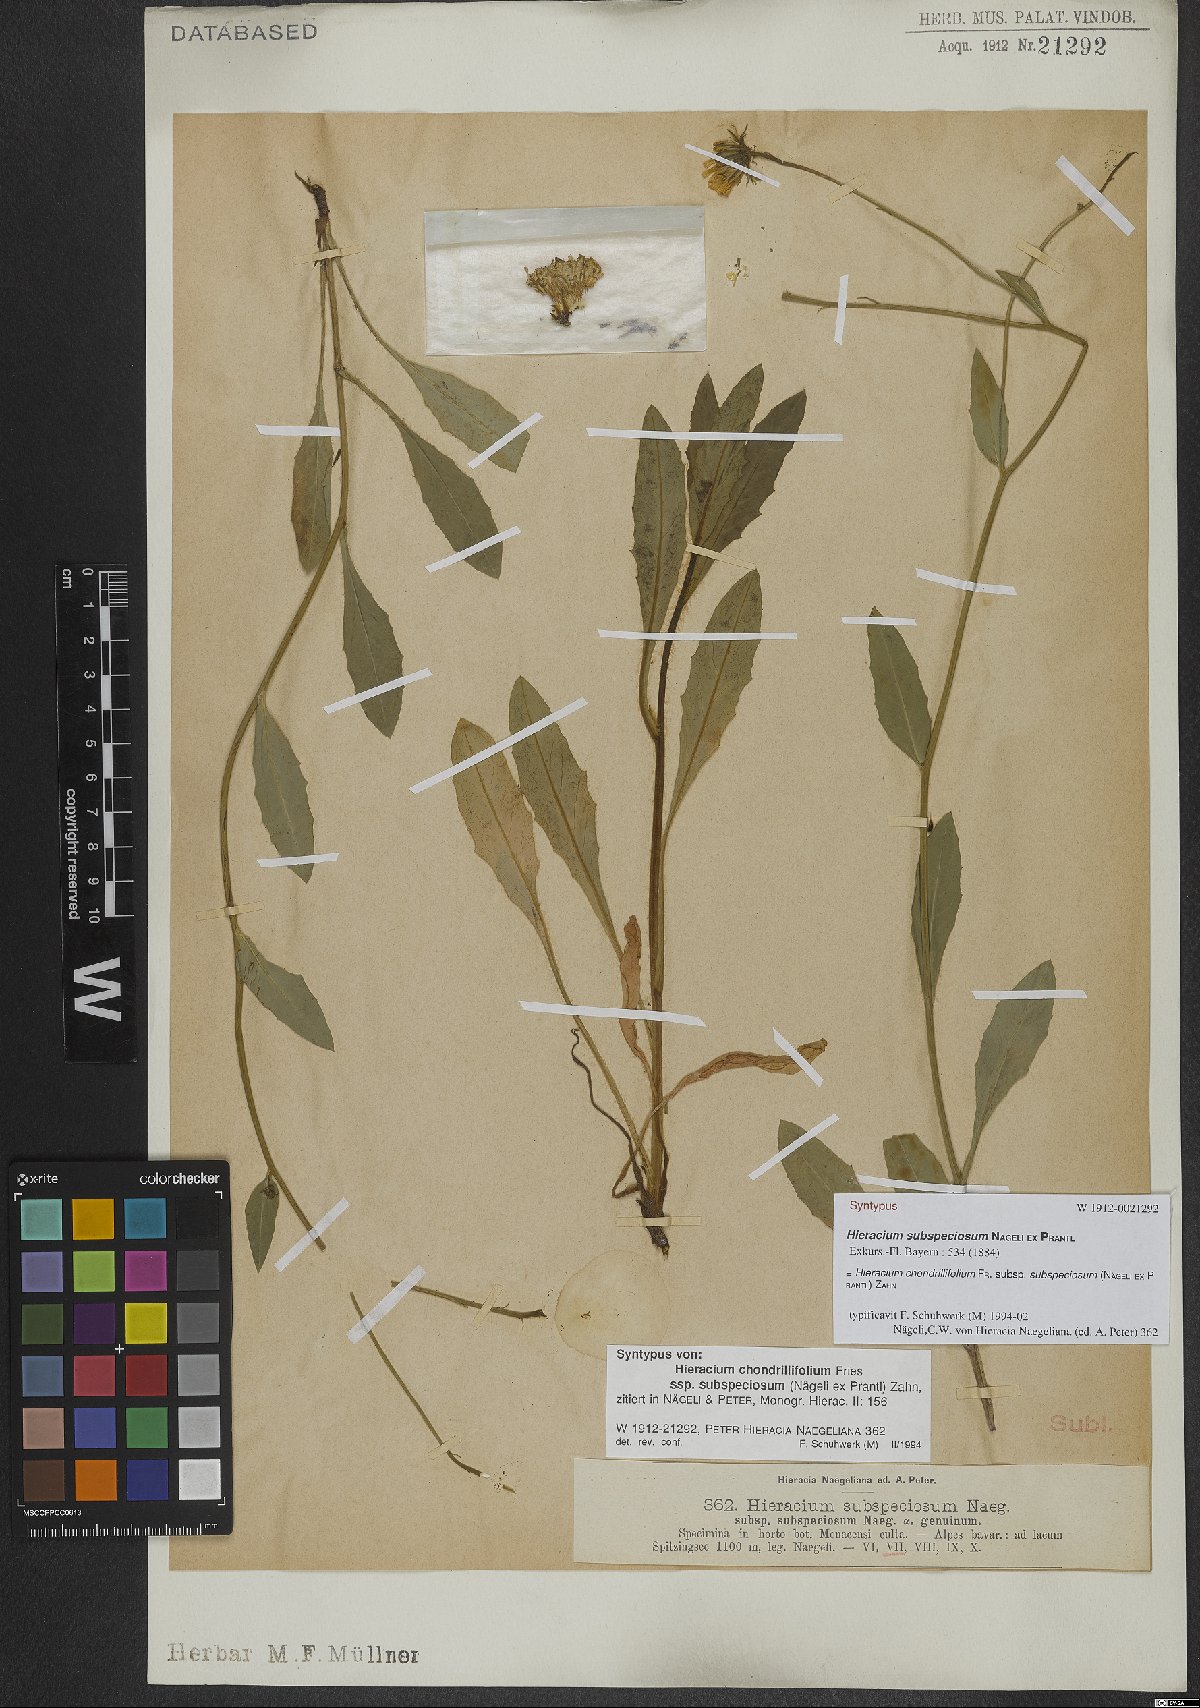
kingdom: Plantae
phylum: Tracheophyta
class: Magnoliopsida
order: Asterales
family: Asteraceae
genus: Hieracium
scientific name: Hieracium subspeciosum
